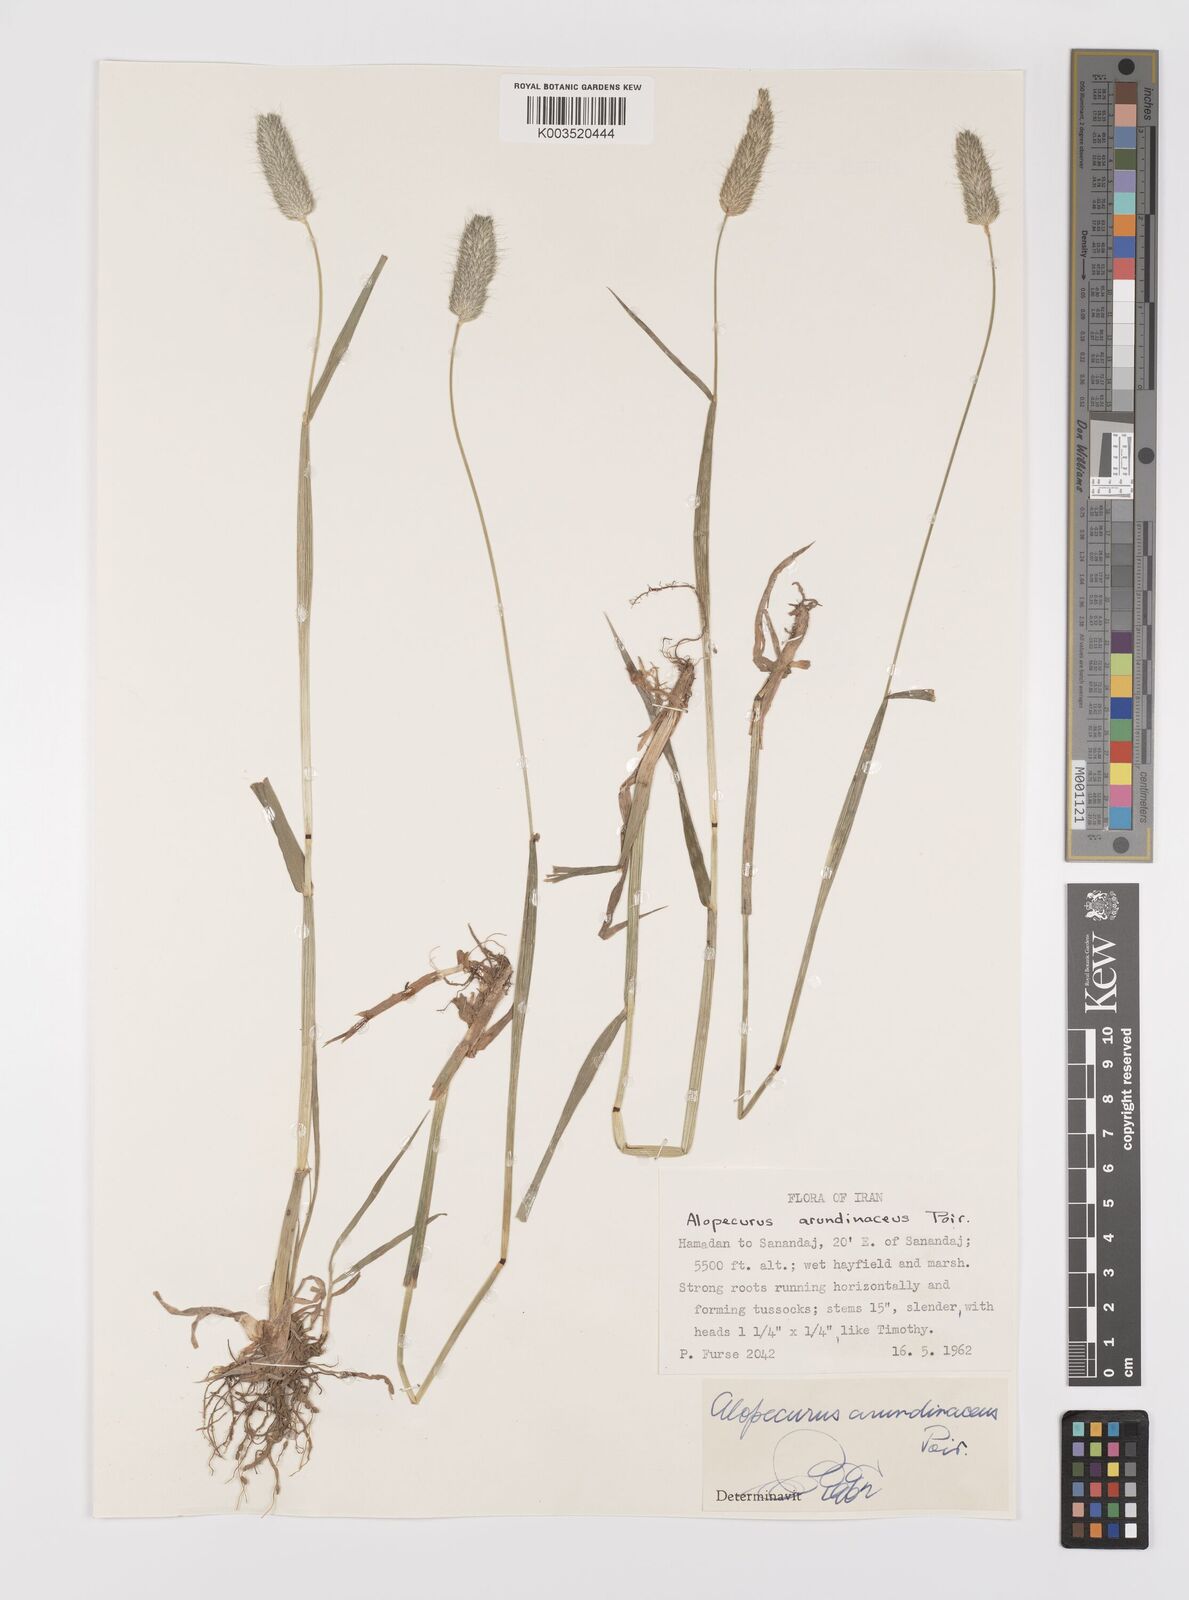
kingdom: Plantae
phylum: Tracheophyta
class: Liliopsida
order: Poales
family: Poaceae
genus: Alopecurus
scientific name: Alopecurus arundinaceus
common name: Creeping meadow foxtail
